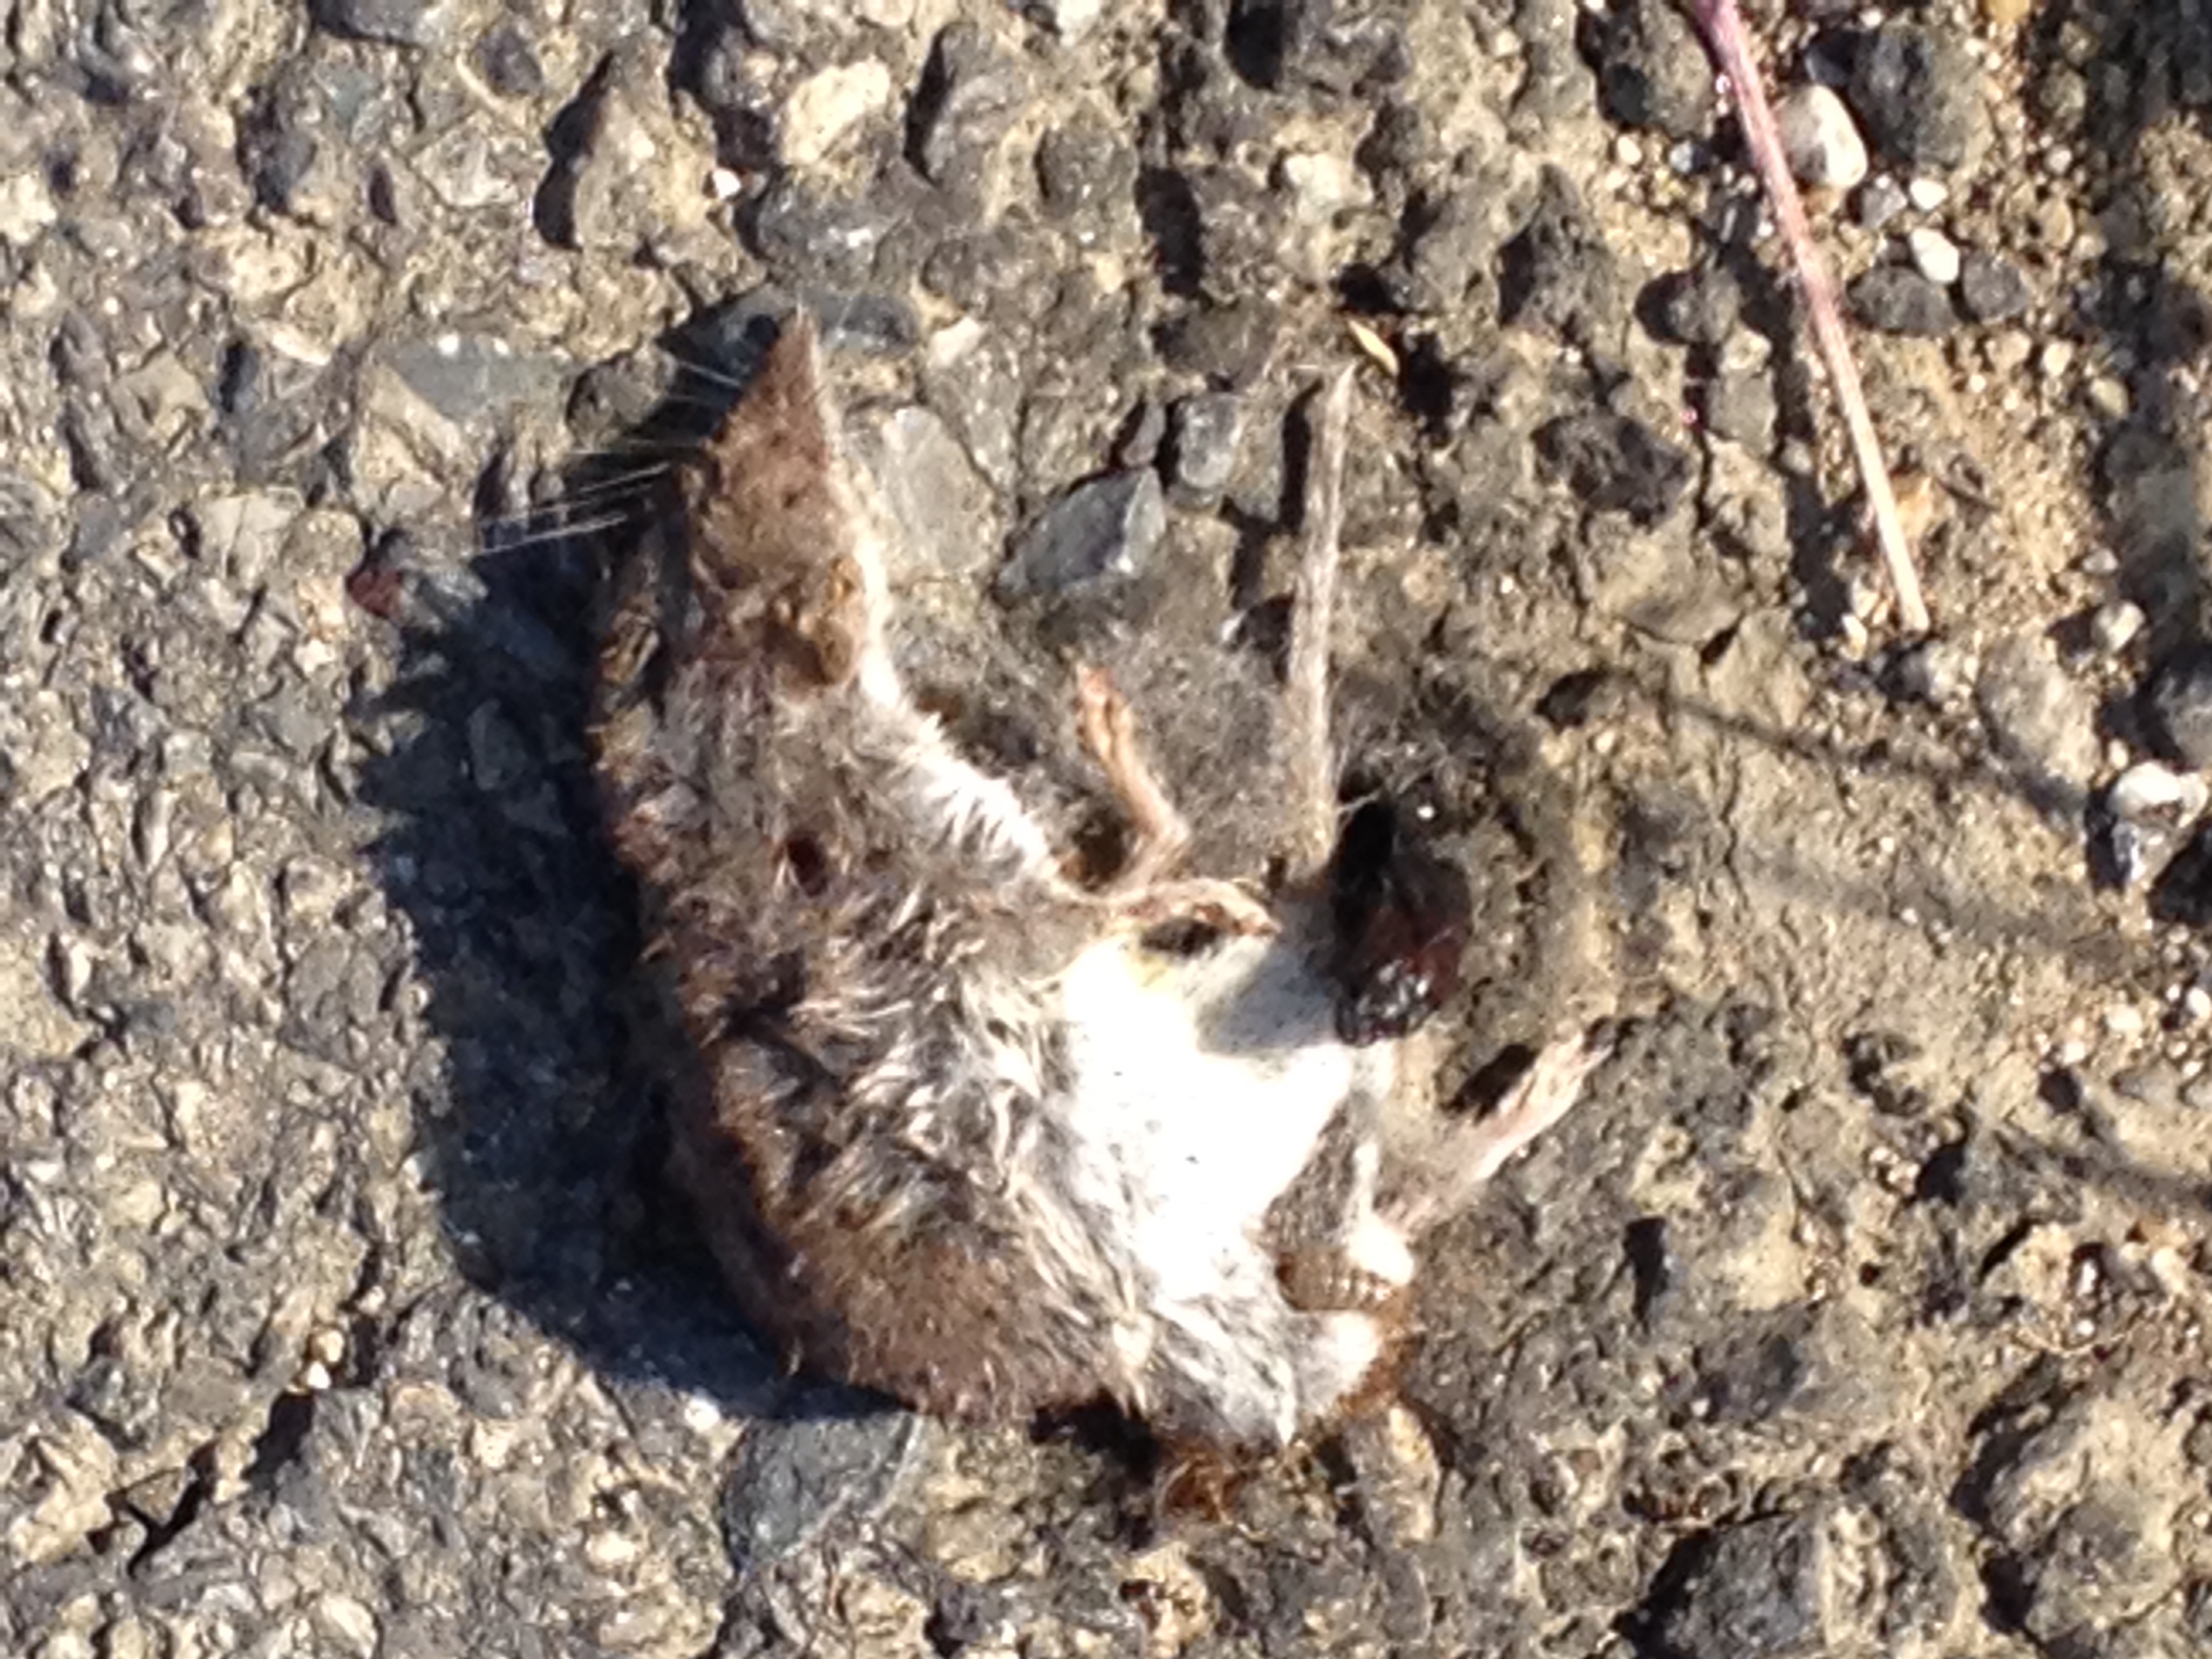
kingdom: Animalia
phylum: Chordata
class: Mammalia
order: Soricomorpha
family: Soricidae
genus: Crocidura
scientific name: Crocidura
